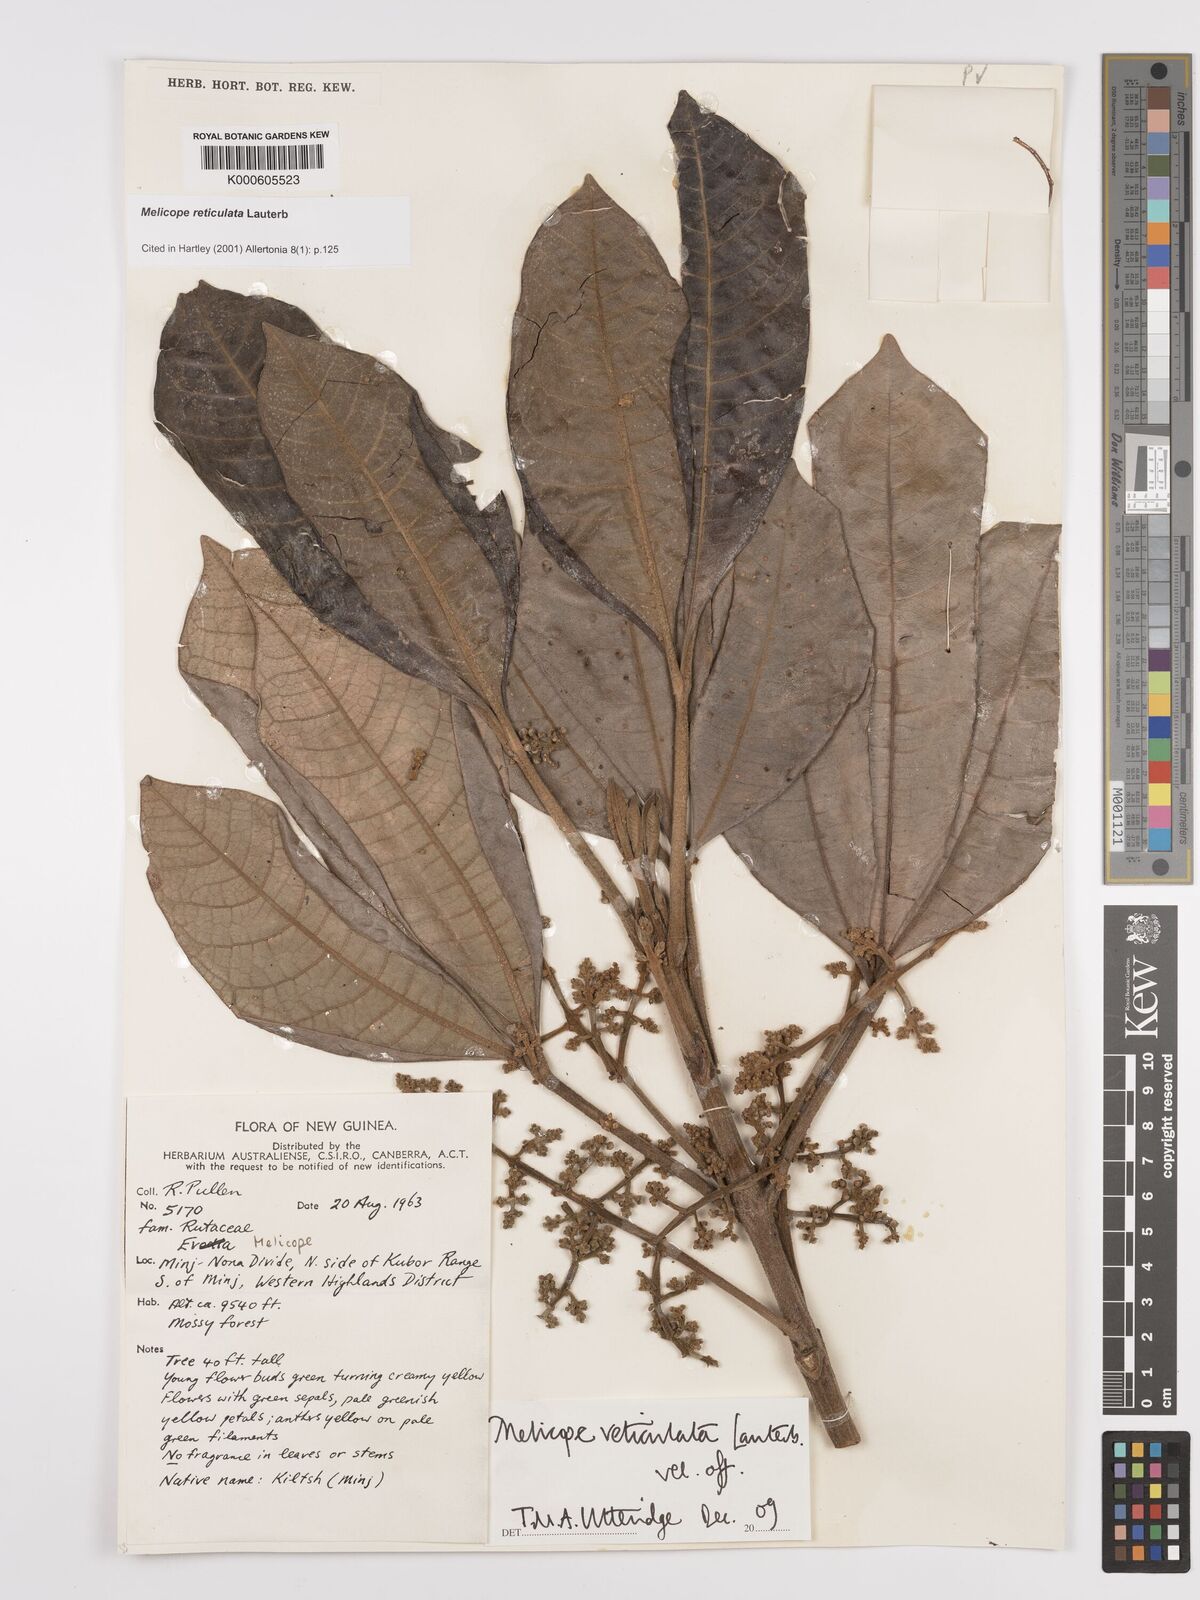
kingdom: Plantae
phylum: Tracheophyta
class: Magnoliopsida
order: Sapindales
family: Rutaceae
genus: Melicope
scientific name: Melicope reticulata
